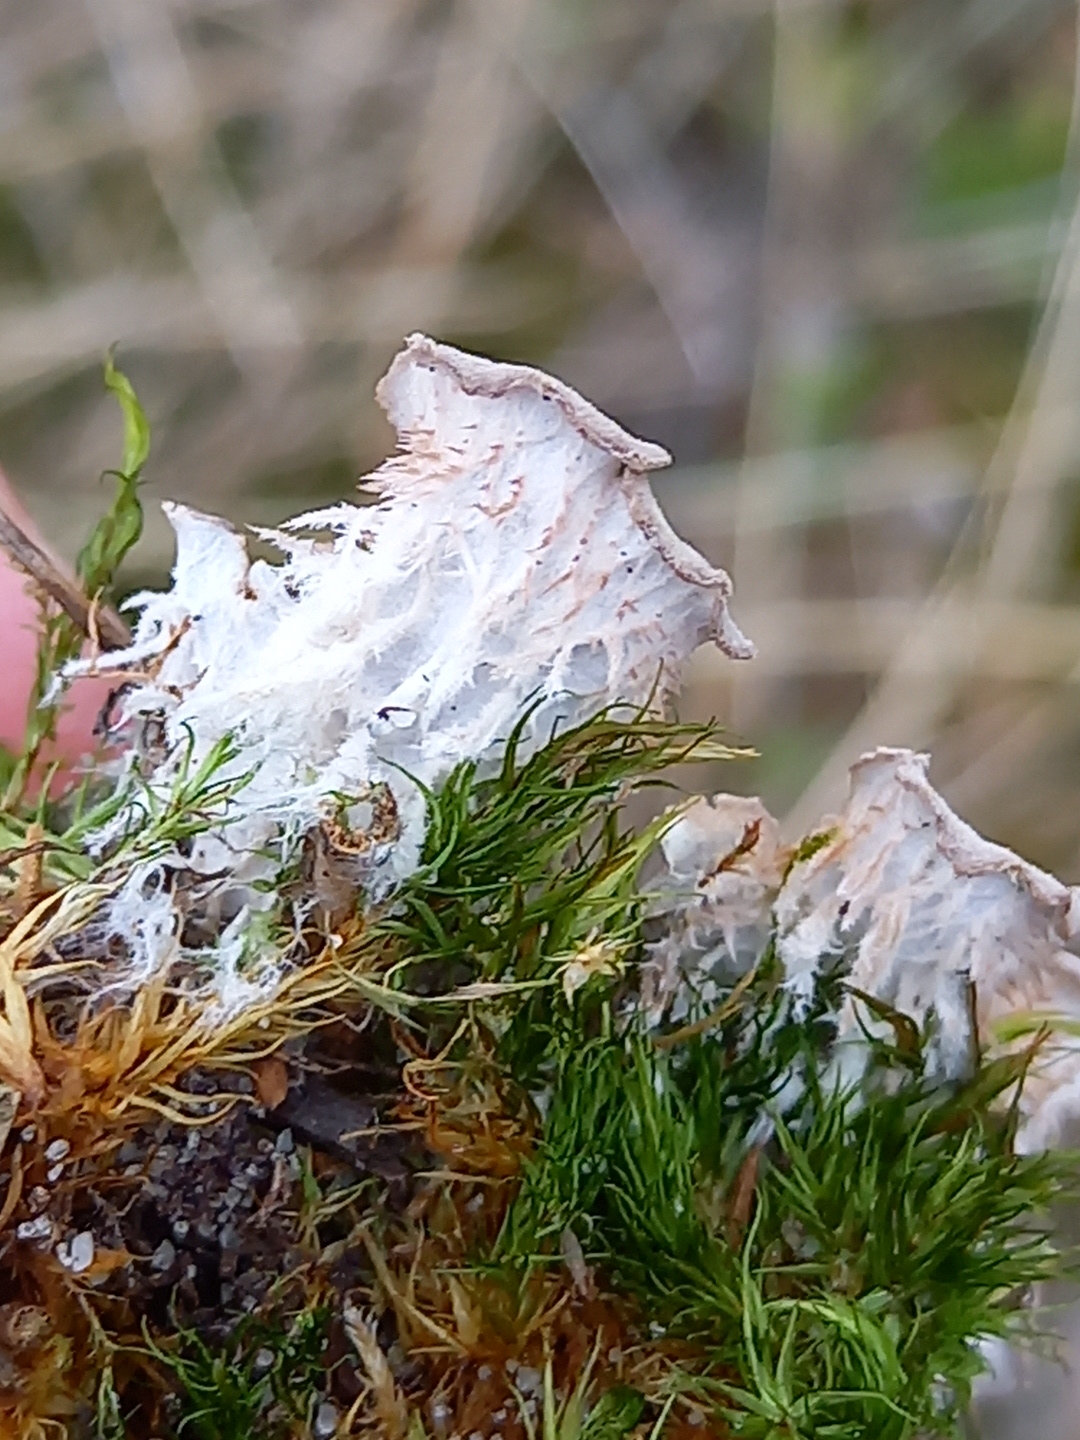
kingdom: Fungi
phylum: Ascomycota
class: Lecanoromycetes
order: Peltigerales
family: Peltigeraceae
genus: Peltigera
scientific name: Peltigera
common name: skjoldlav
